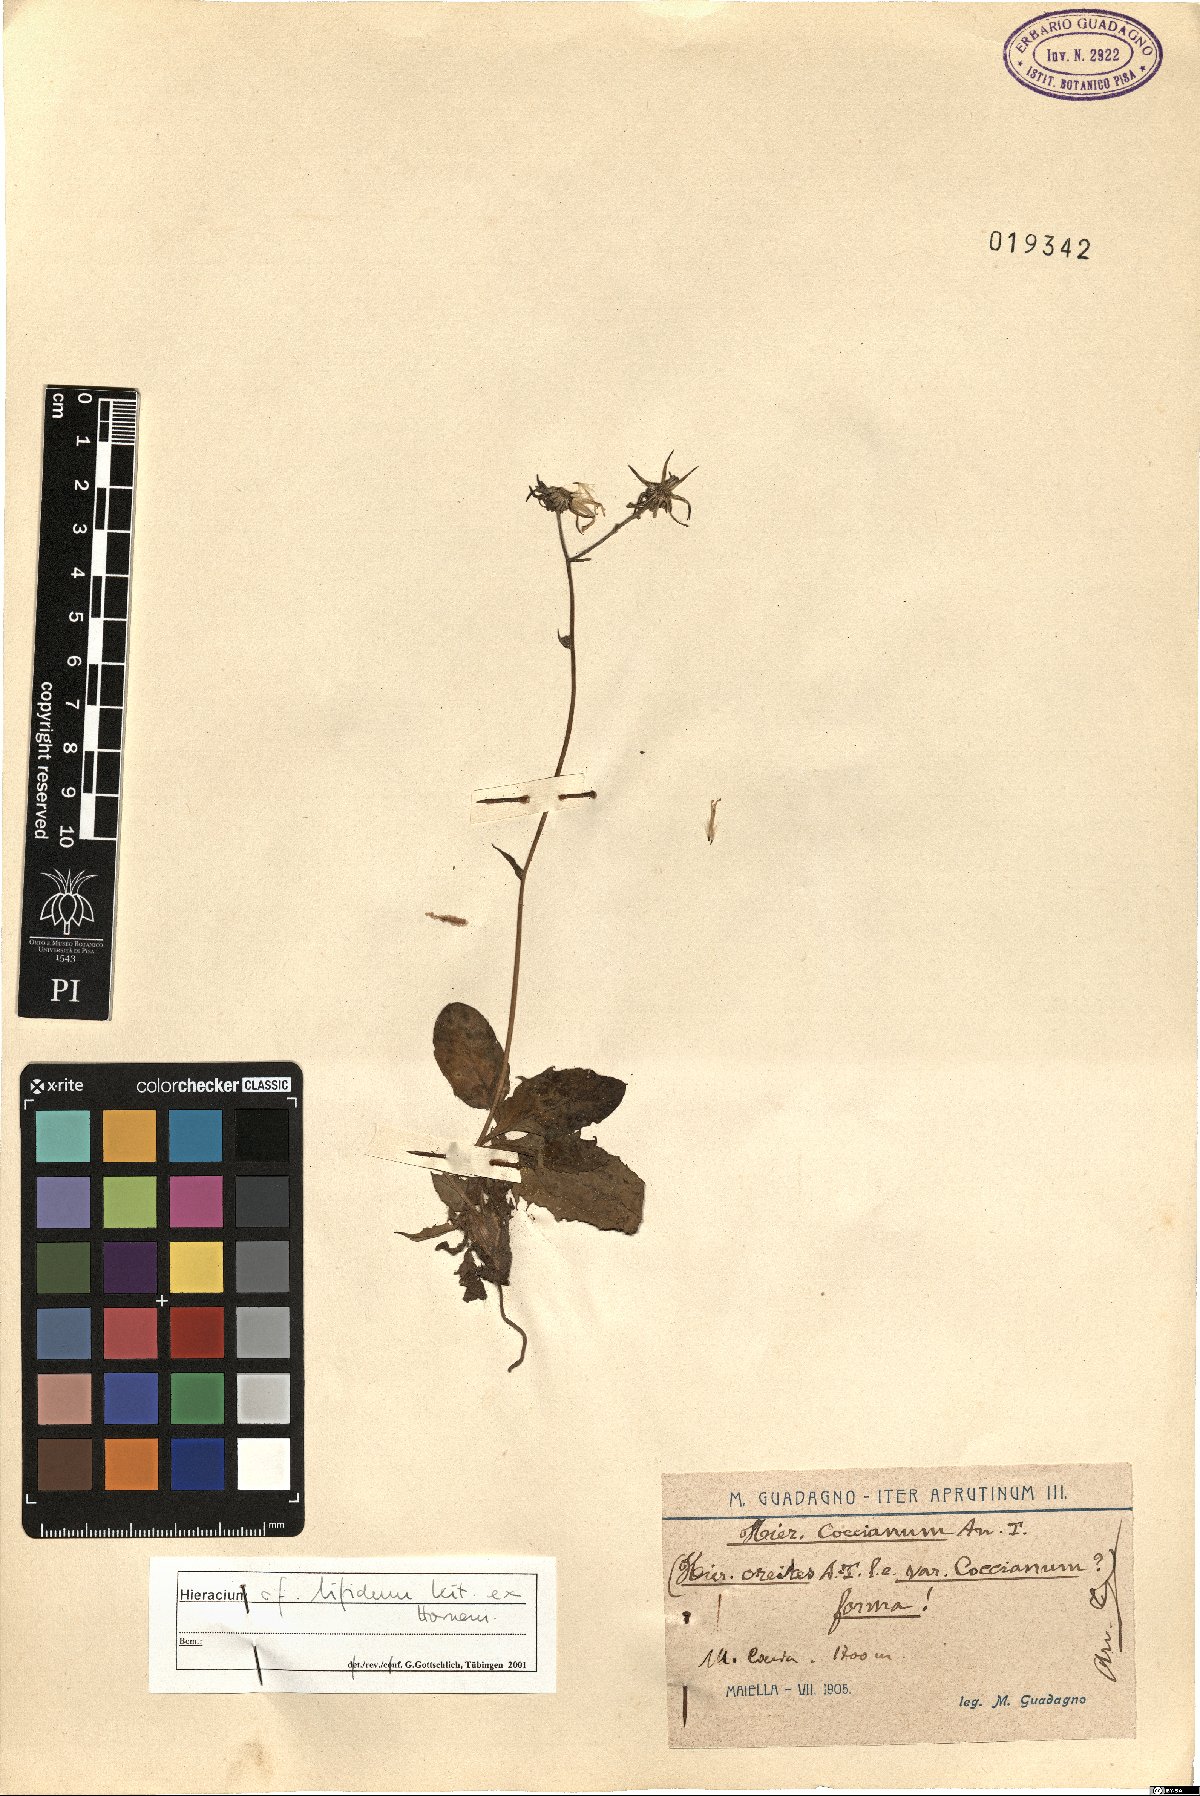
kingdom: Plantae
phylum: Tracheophyta
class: Magnoliopsida
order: Asterales
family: Asteraceae
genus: Hieracium
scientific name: Hieracium bifidum
